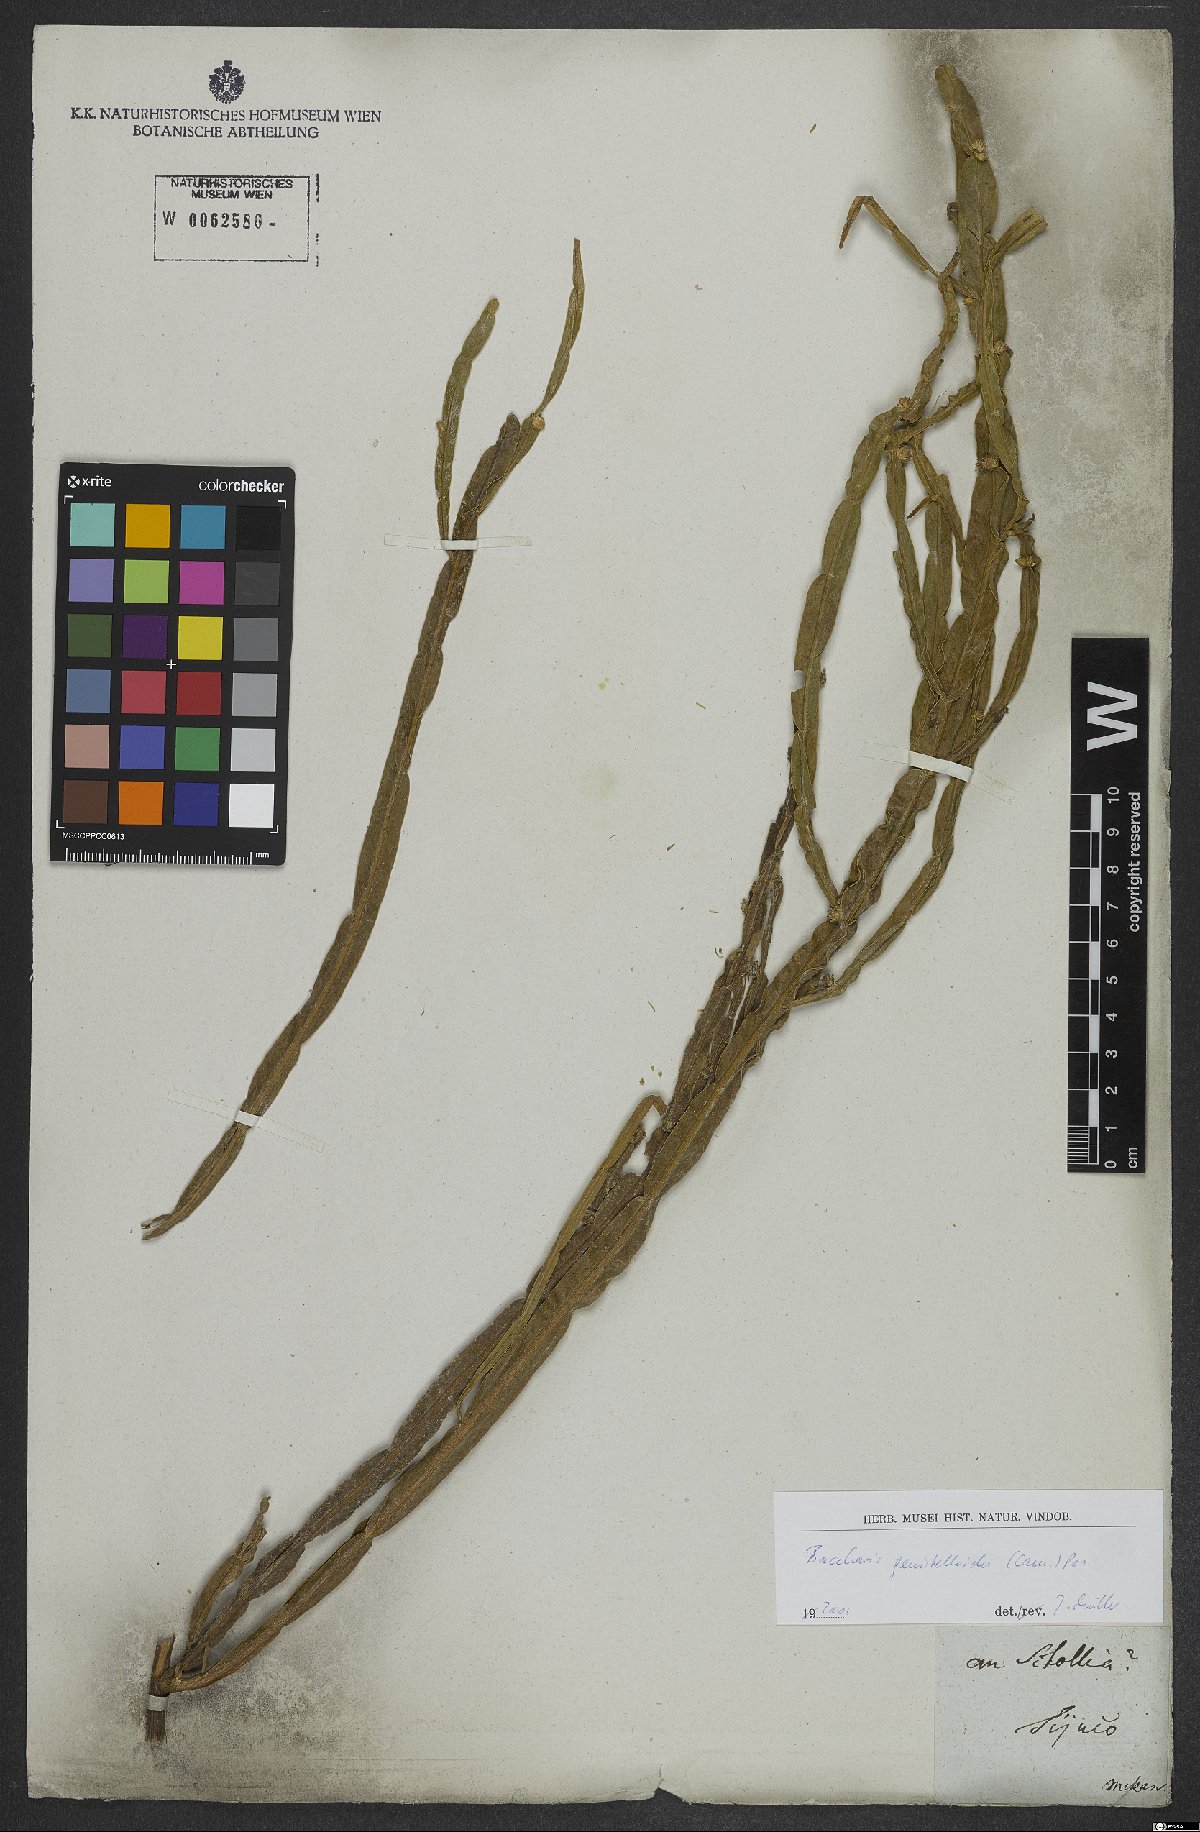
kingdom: Plantae
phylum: Tracheophyta
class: Magnoliopsida
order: Asterales
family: Asteraceae
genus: Baccharis
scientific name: Baccharis genistelloides
